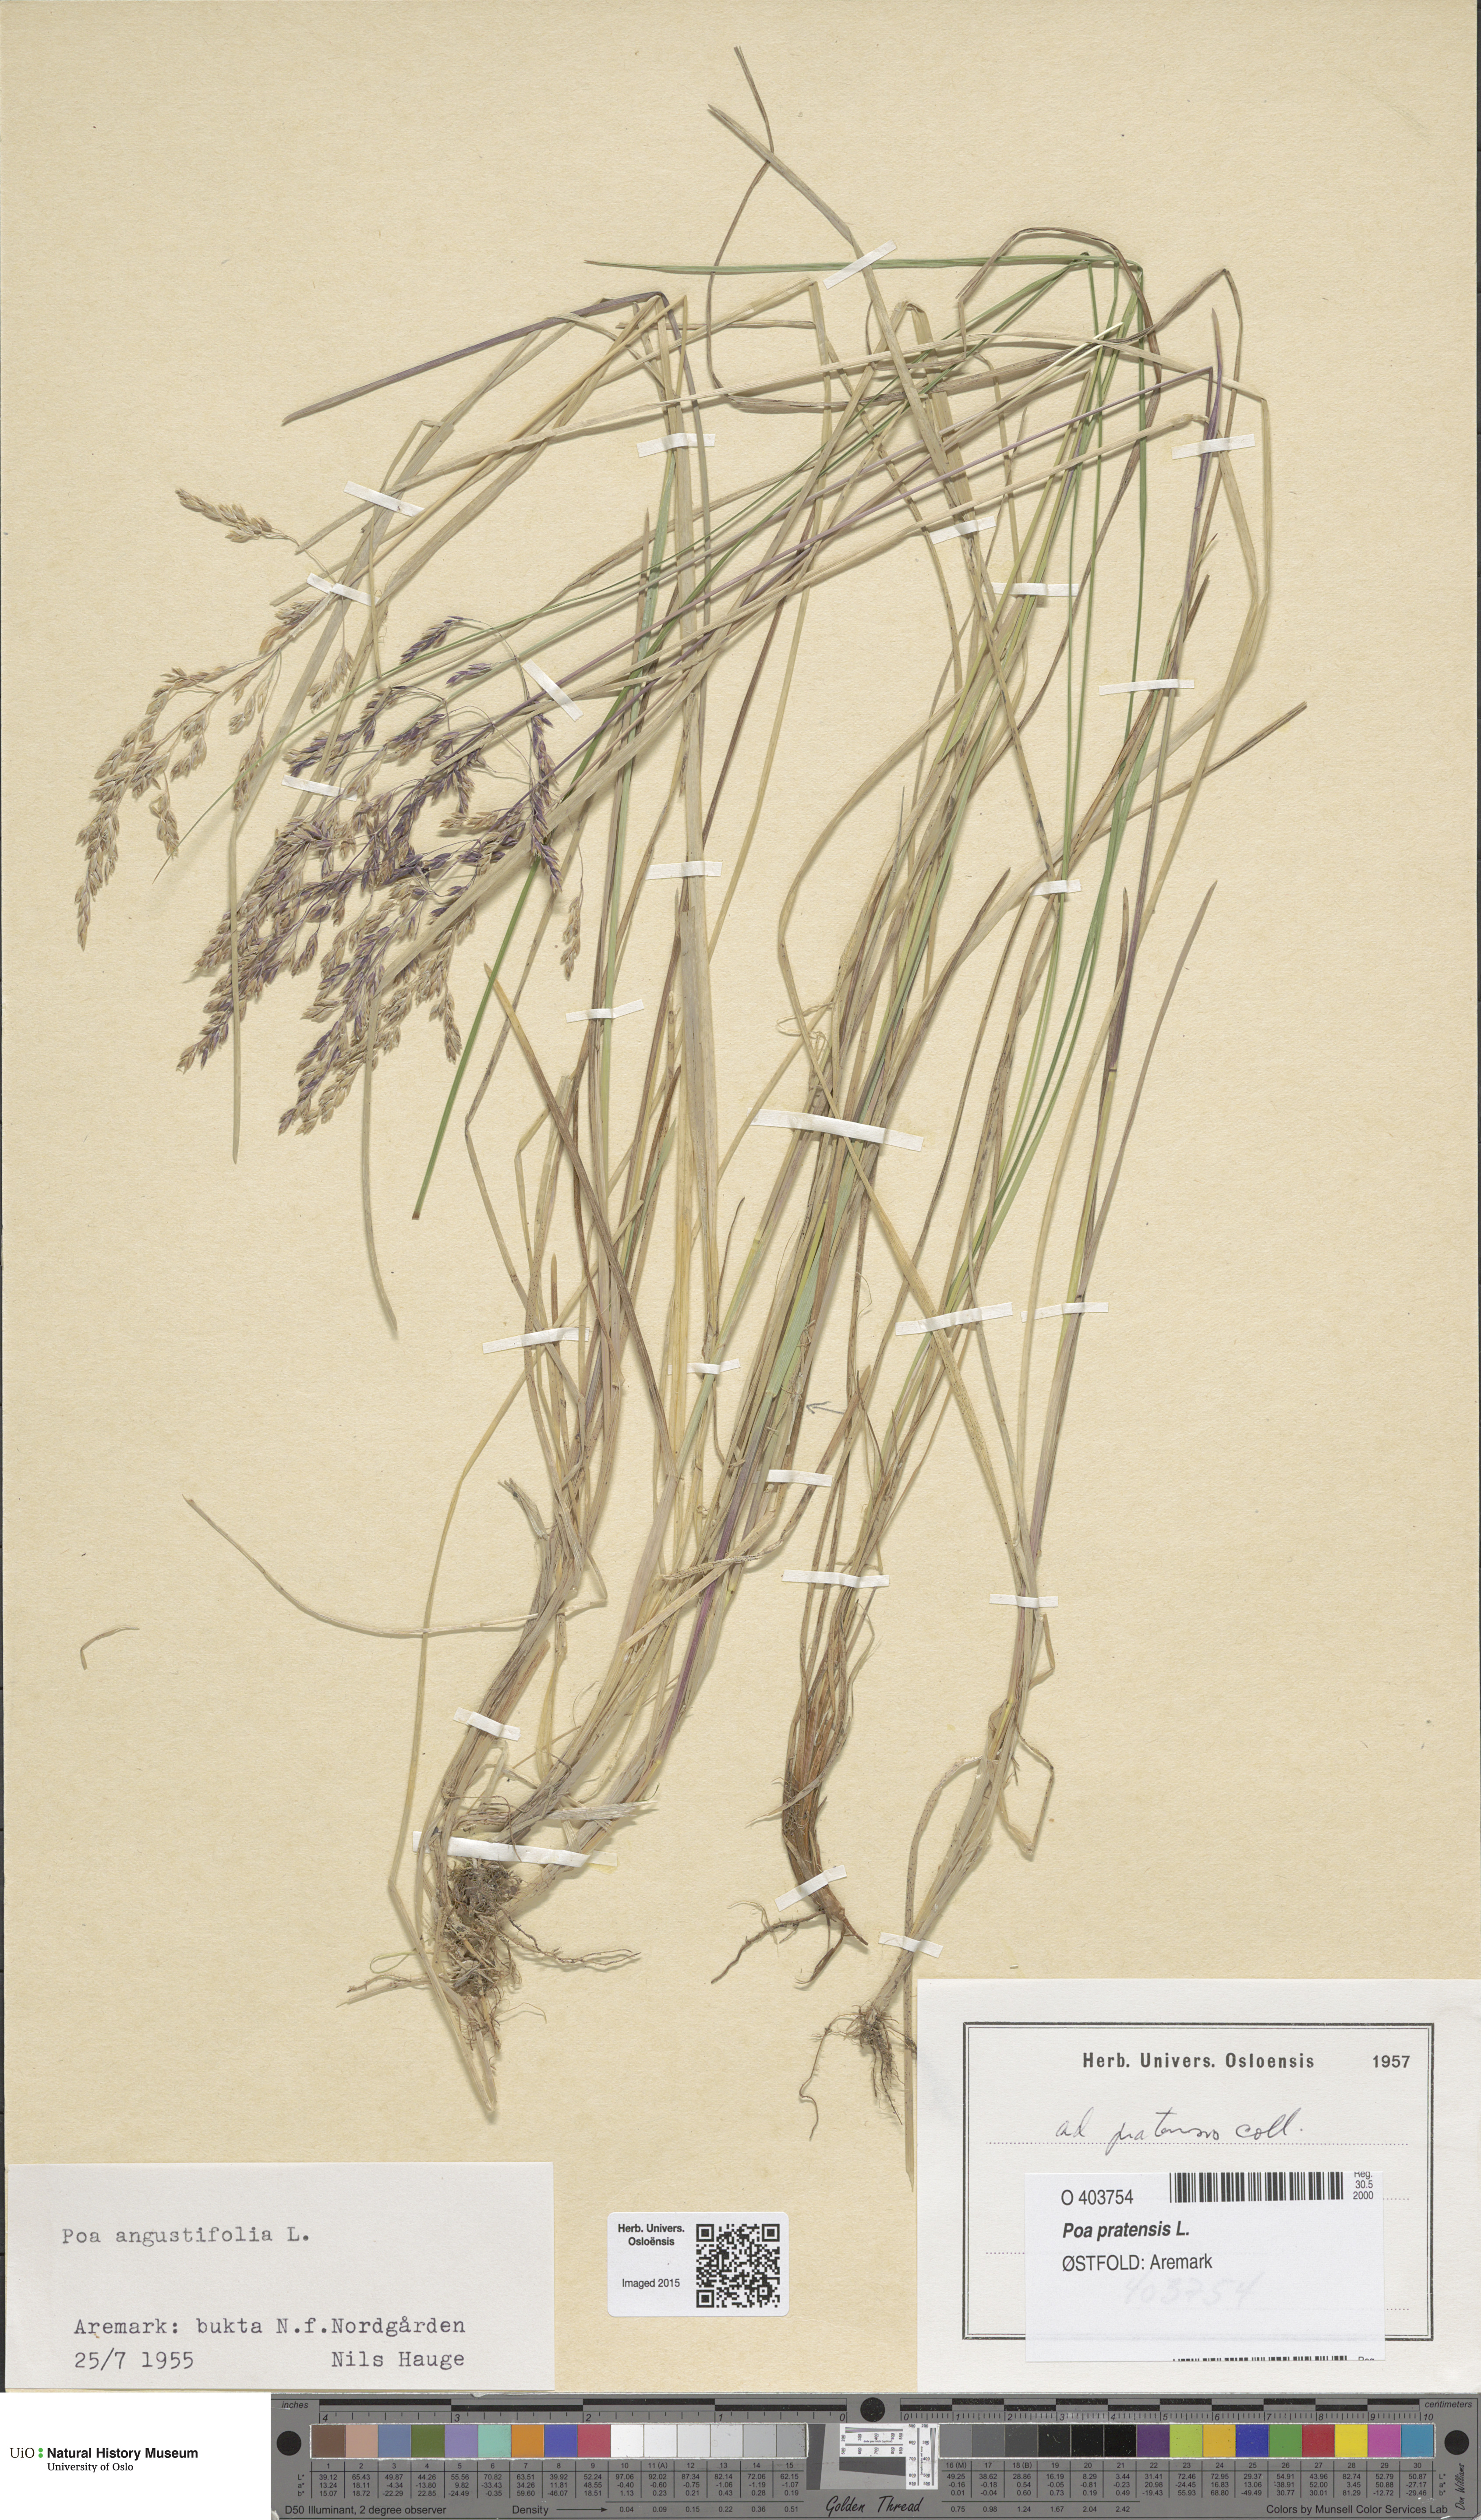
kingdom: Plantae
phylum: Tracheophyta
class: Liliopsida
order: Poales
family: Poaceae
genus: Poa
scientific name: Poa pratensis
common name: Kentucky bluegrass
